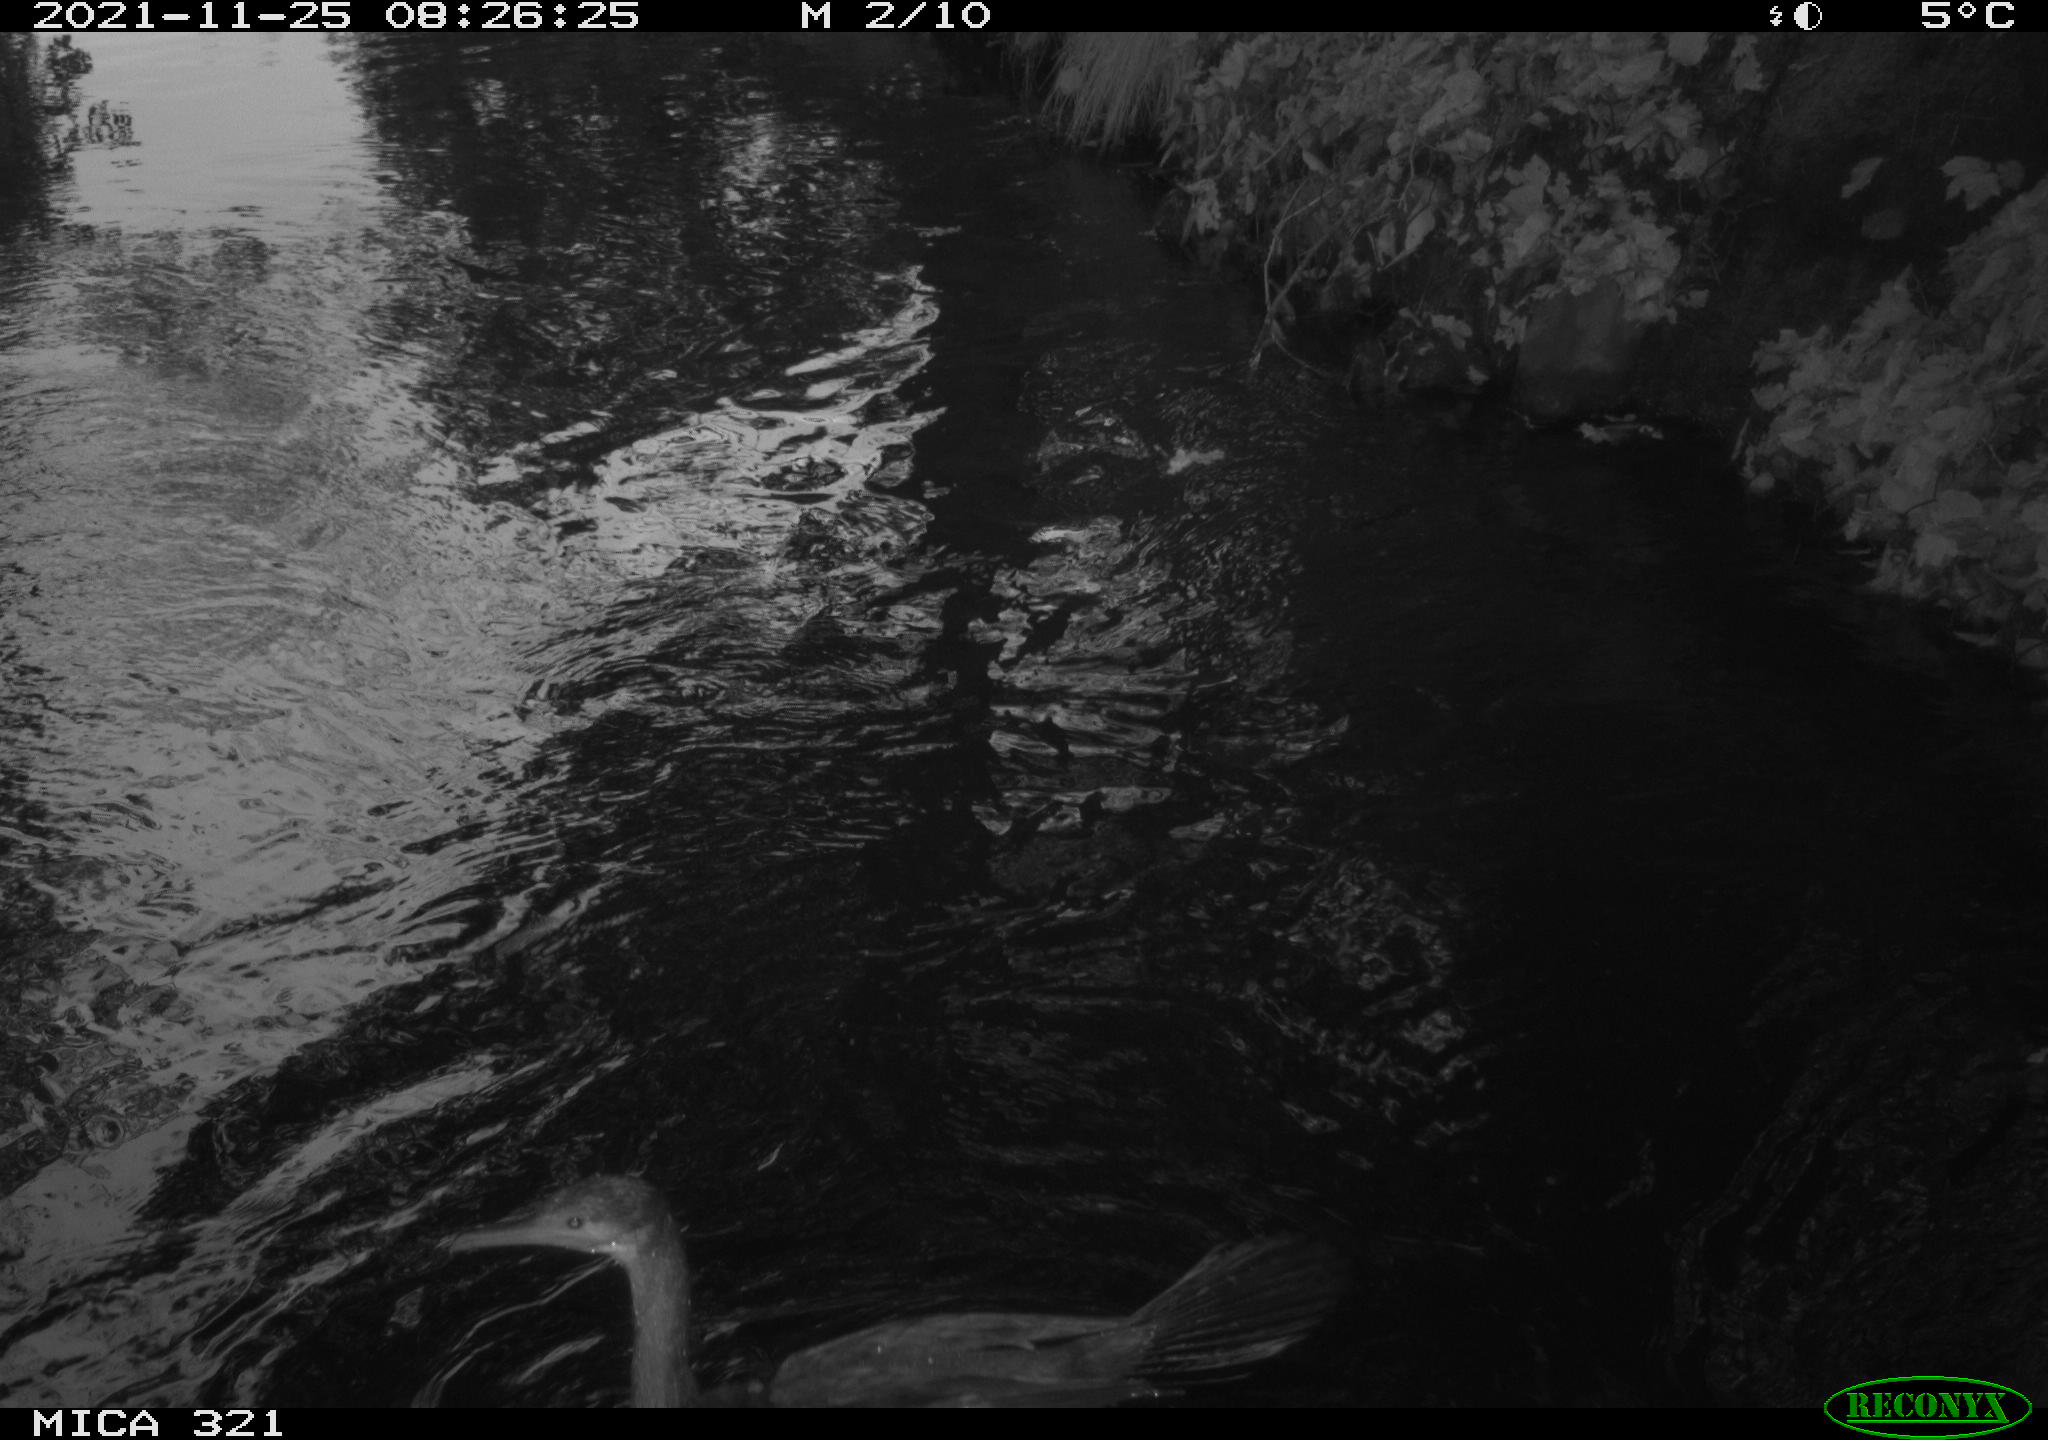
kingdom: Animalia
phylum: Chordata
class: Aves
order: Suliformes
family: Phalacrocoracidae
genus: Phalacrocorax
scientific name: Phalacrocorax carbo
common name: Great cormorant
